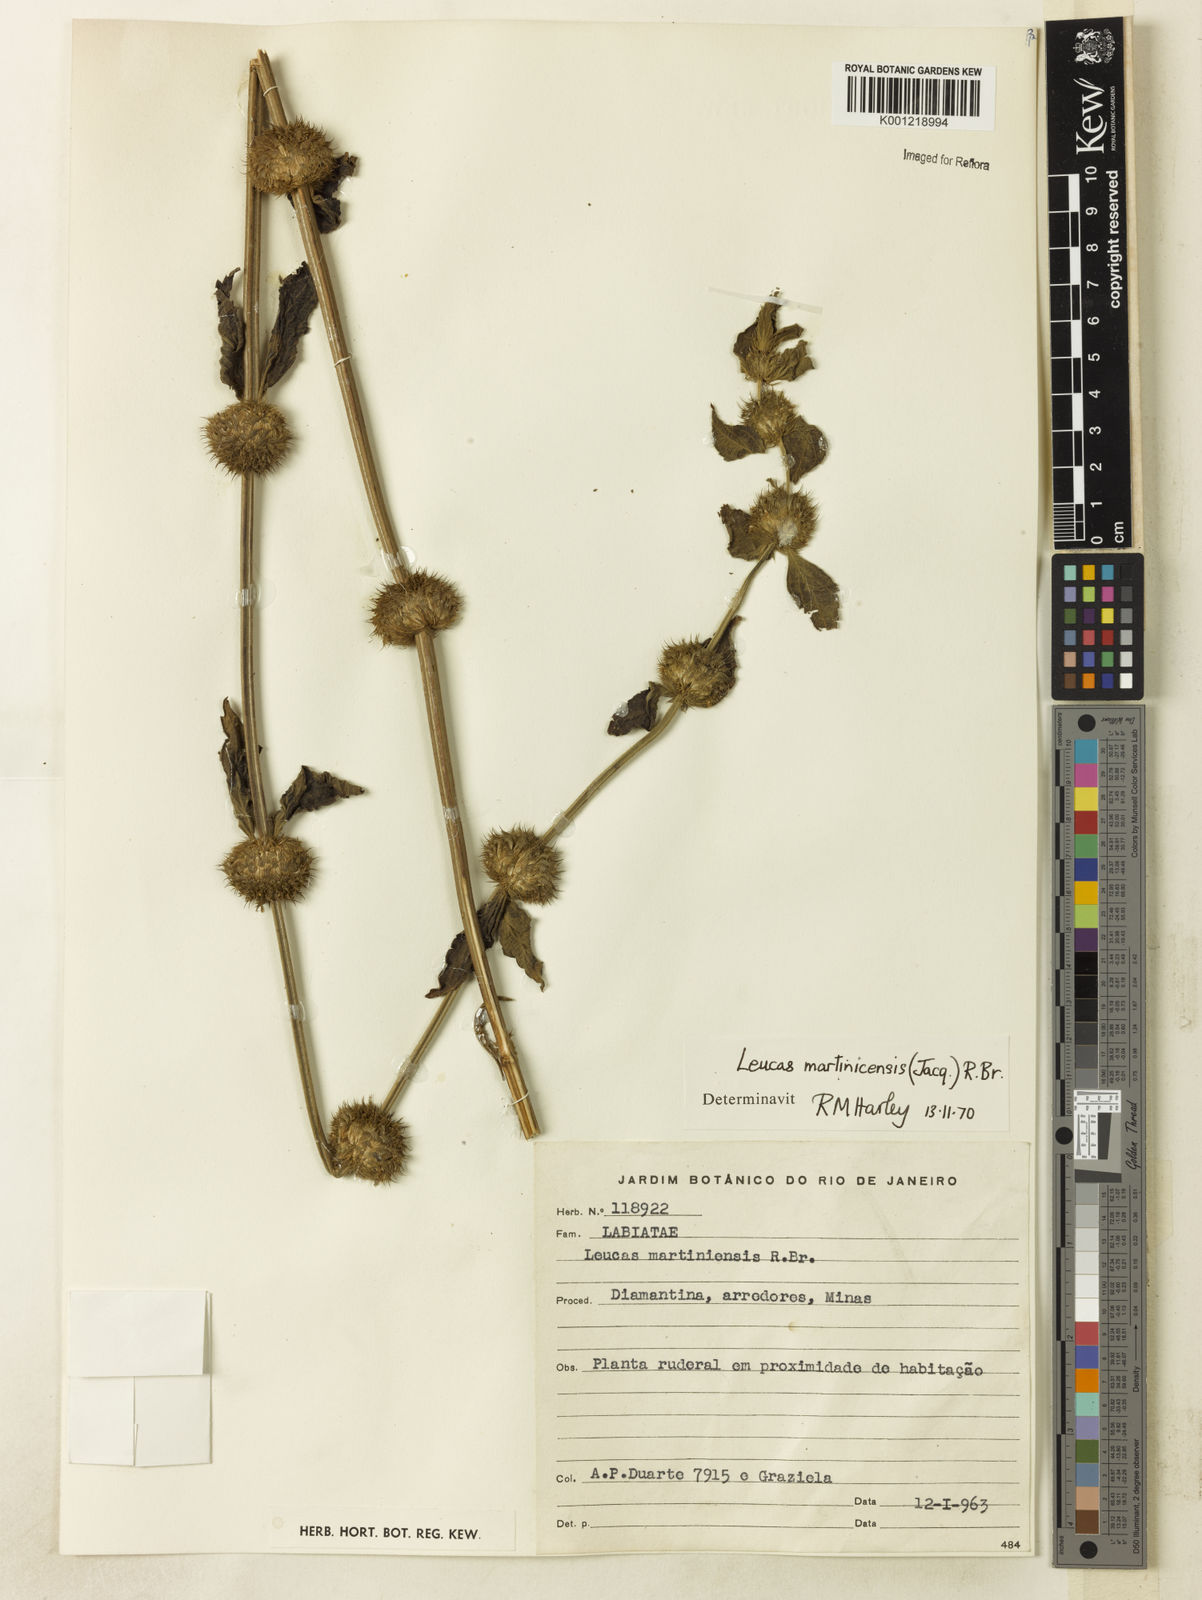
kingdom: Plantae
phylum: Tracheophyta
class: Magnoliopsida
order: Lamiales
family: Lamiaceae
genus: Leucas
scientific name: Leucas martinicensis
